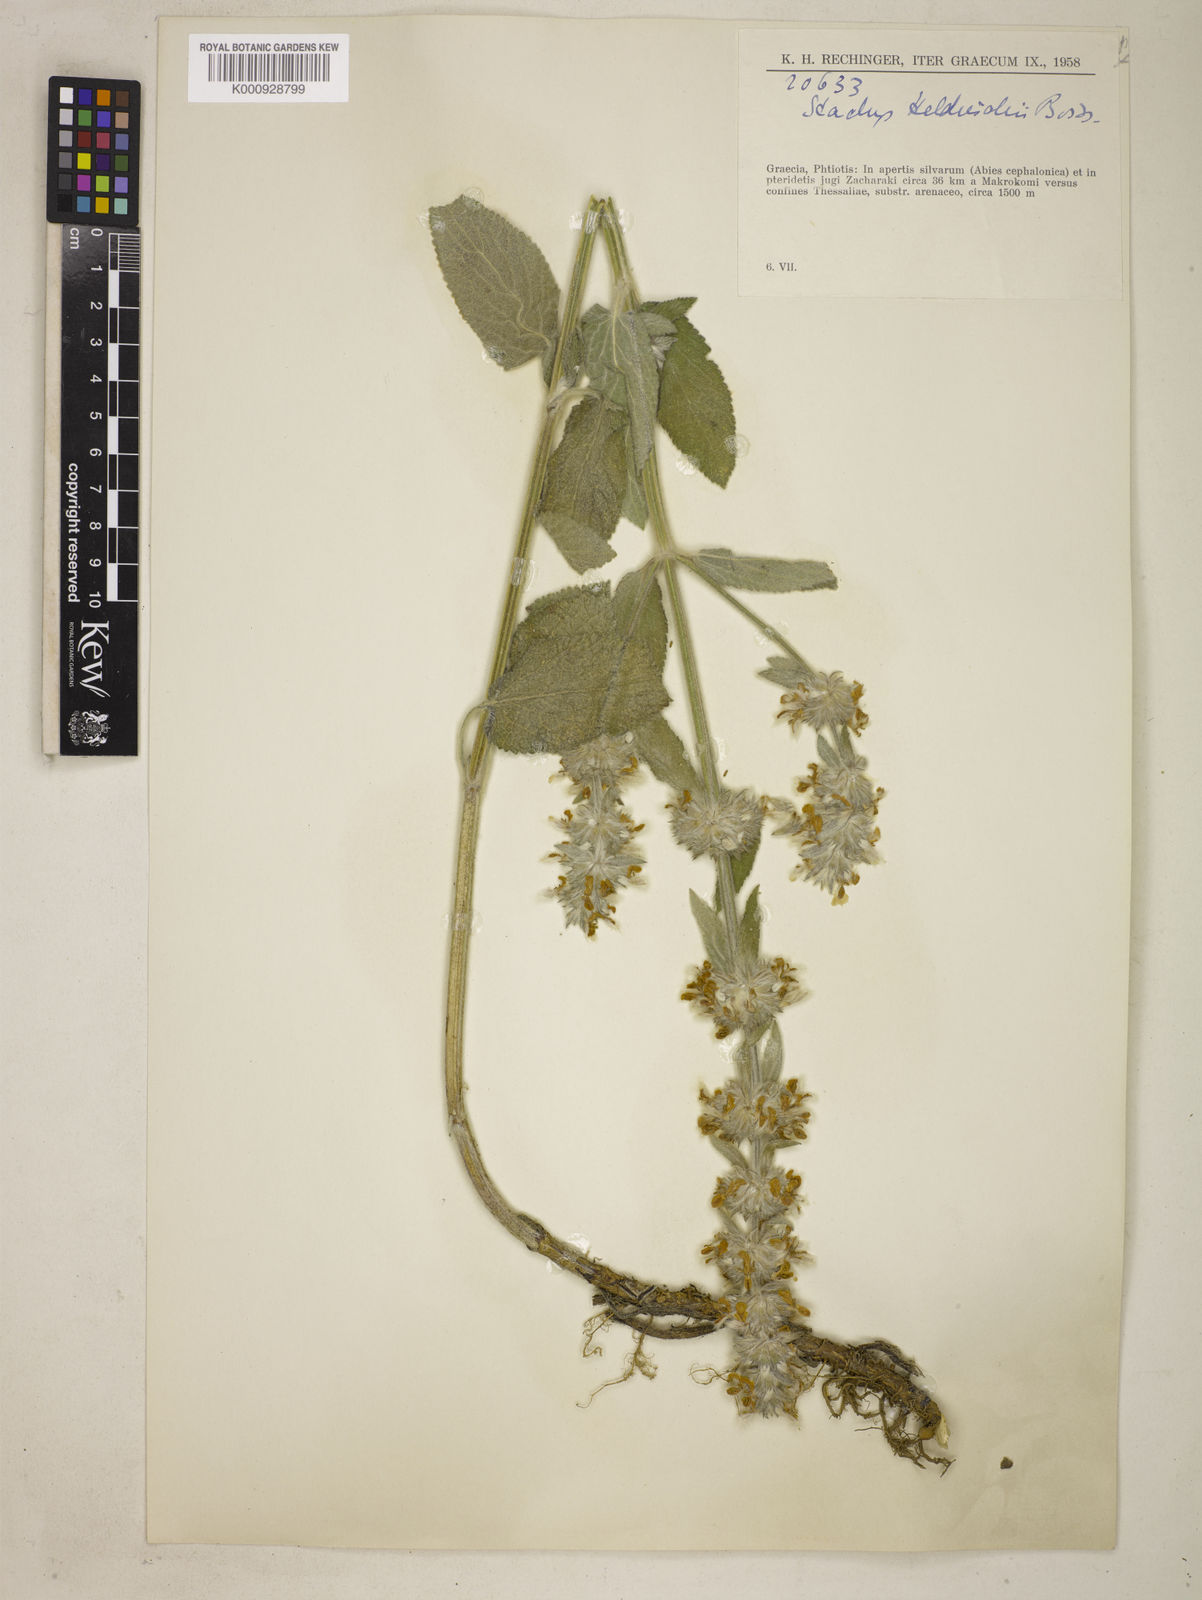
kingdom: Plantae
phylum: Tracheophyta
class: Magnoliopsida
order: Lamiales
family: Lamiaceae
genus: Stachys
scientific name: Stachys germanica
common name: Downy woundwort
